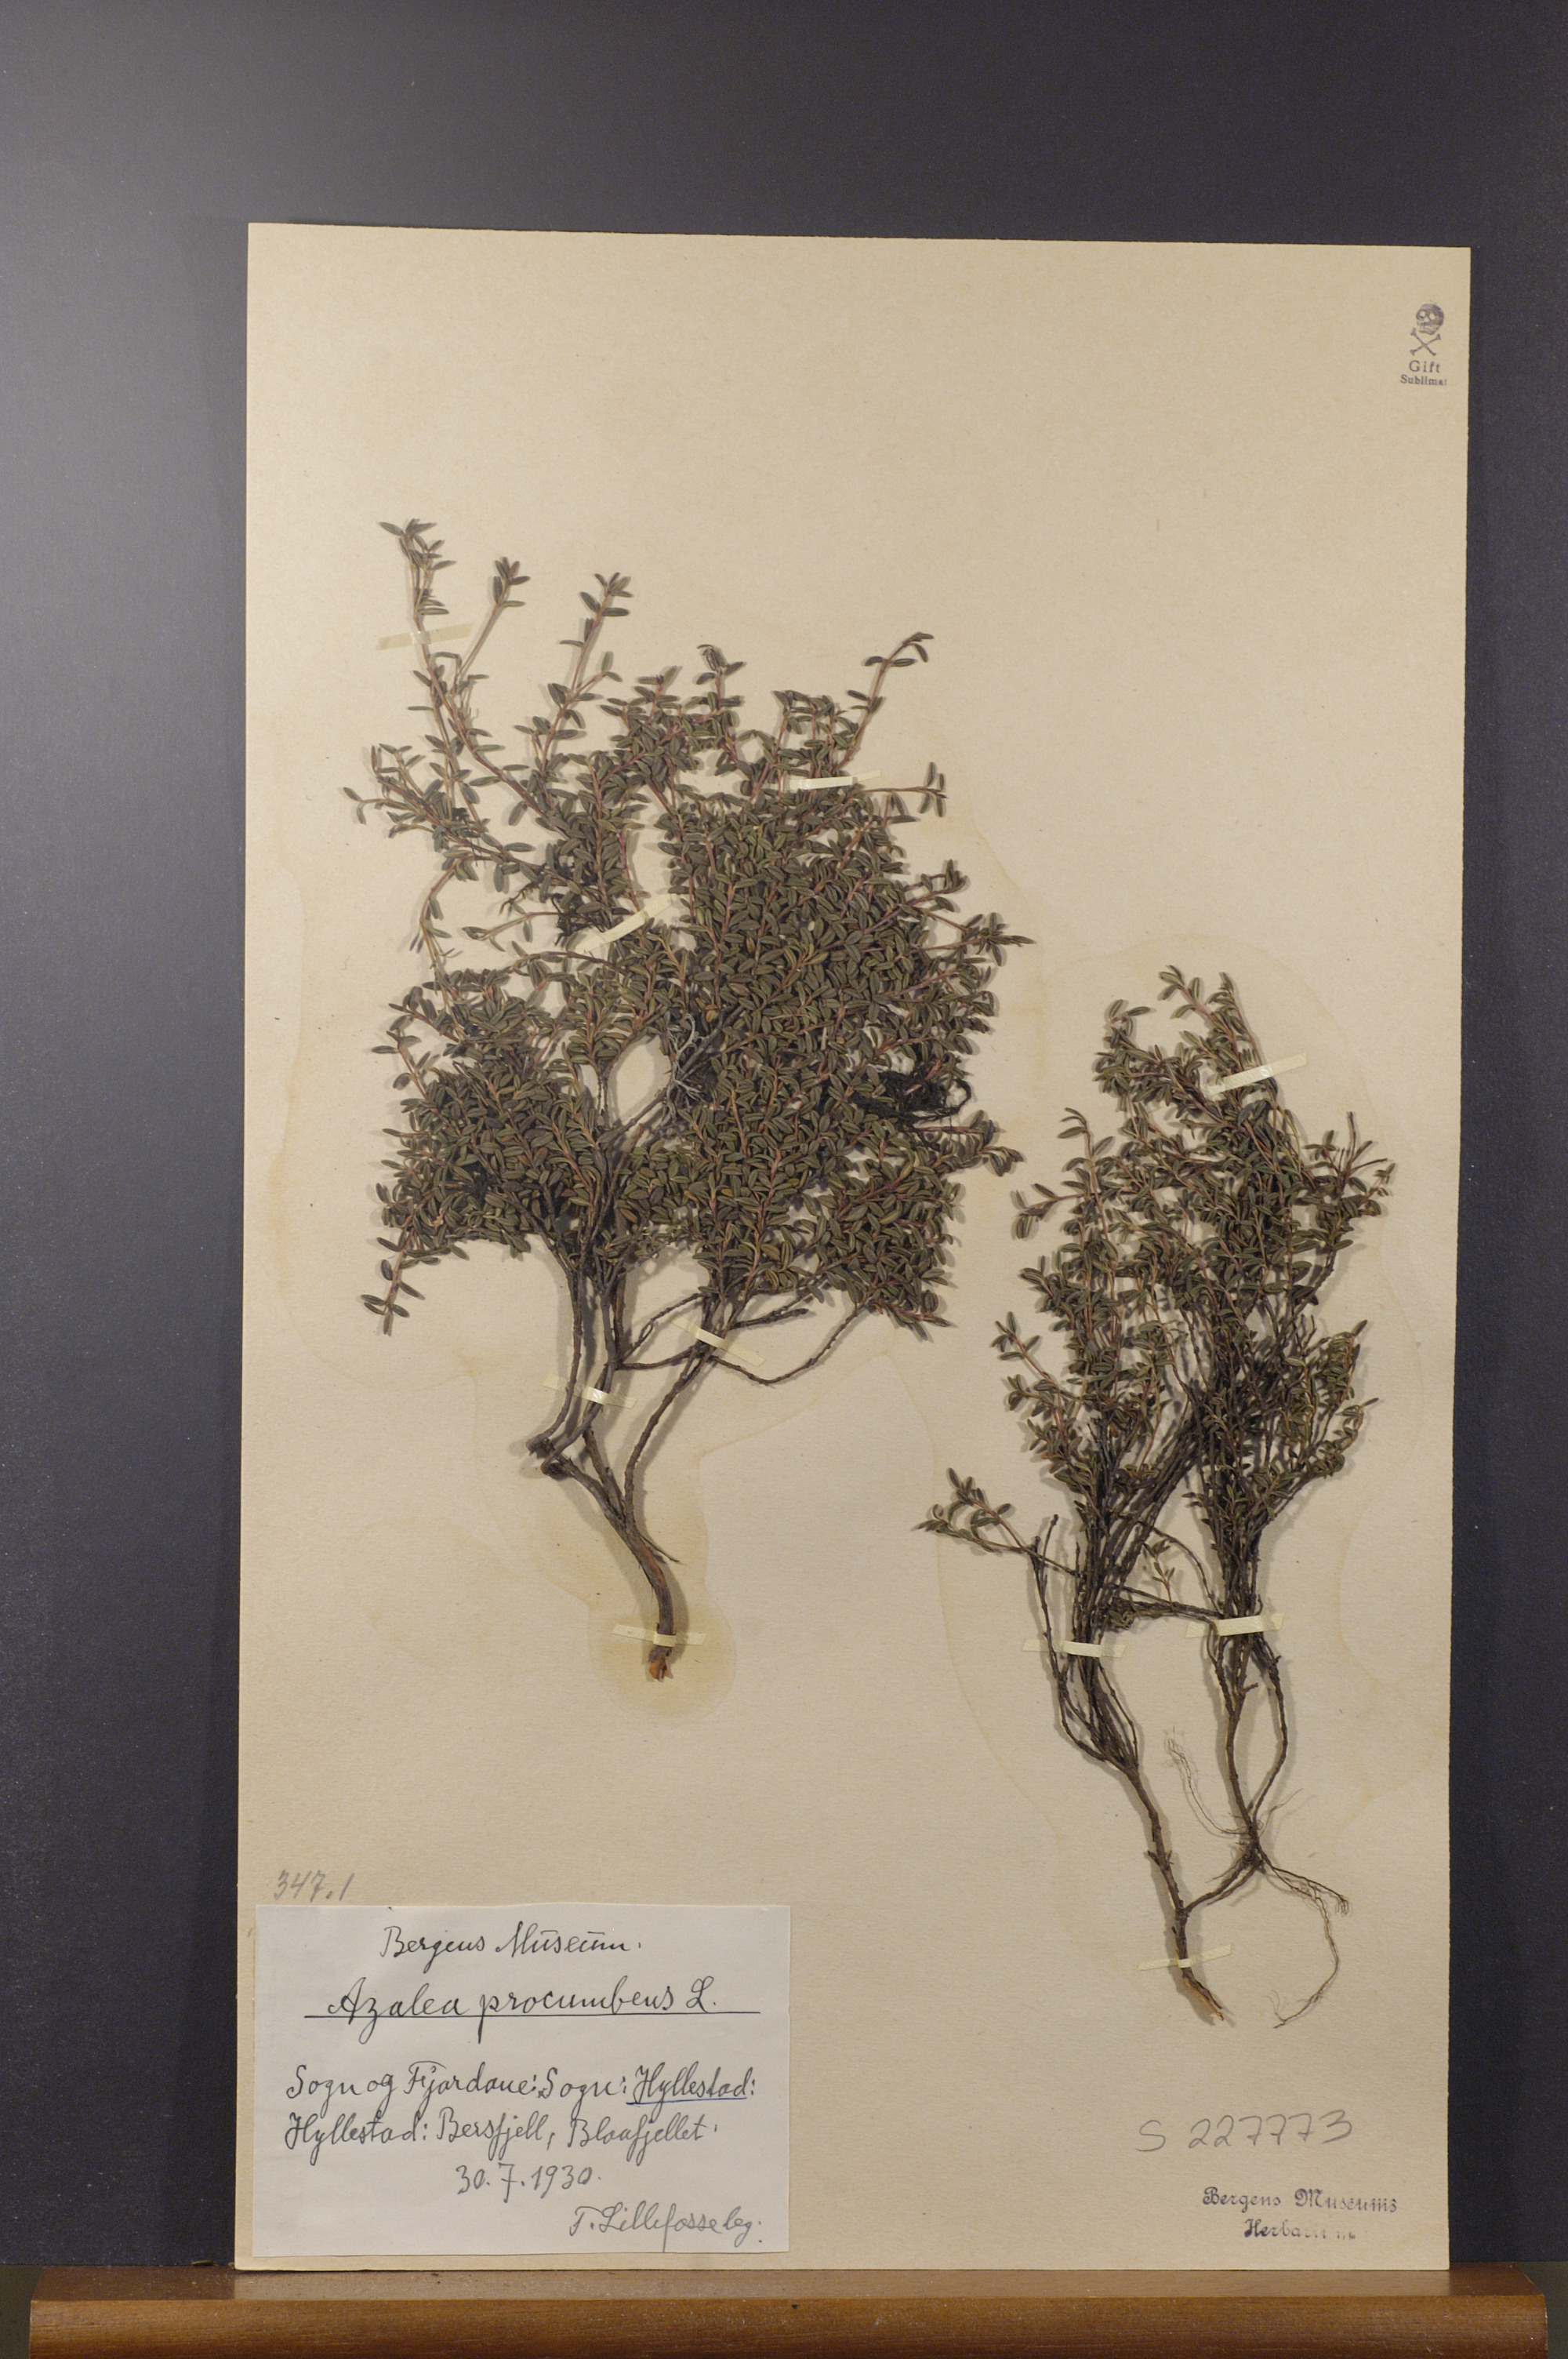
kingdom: Plantae
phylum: Tracheophyta
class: Magnoliopsida
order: Ericales
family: Ericaceae
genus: Kalmia
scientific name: Kalmia procumbens
